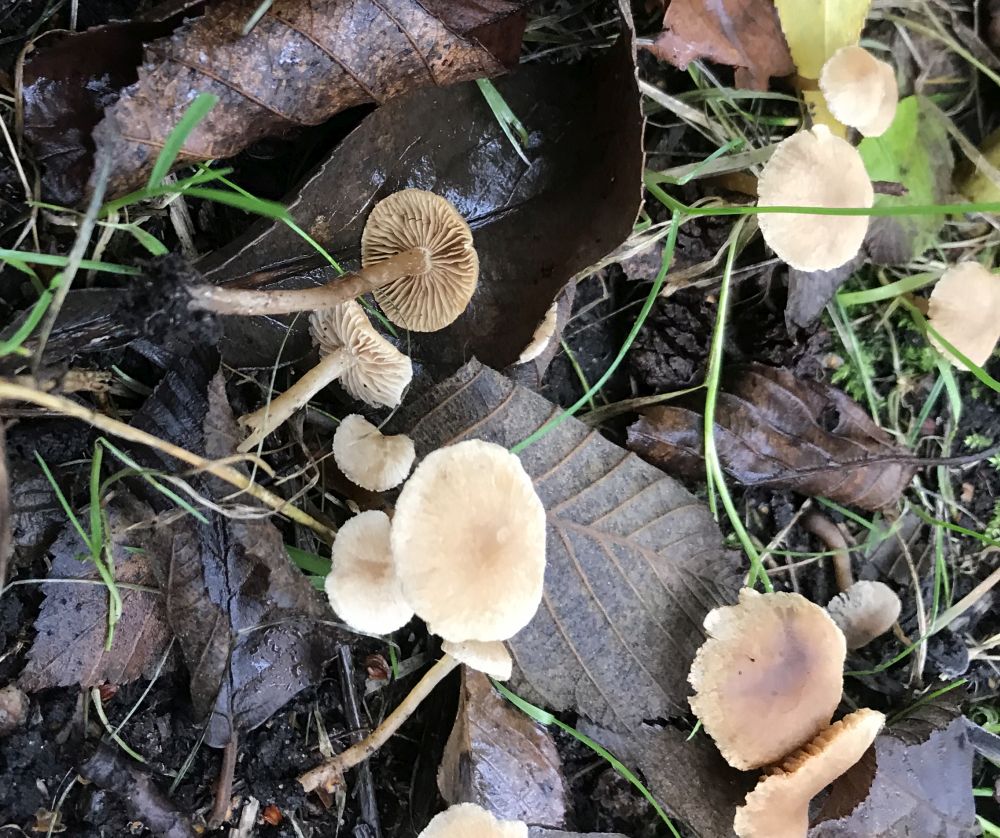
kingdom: Fungi
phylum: Basidiomycota
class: Agaricomycetes
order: Agaricales
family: Hymenogastraceae
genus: Naucoria
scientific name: Naucoria escharioides
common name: lys elle-knaphat
